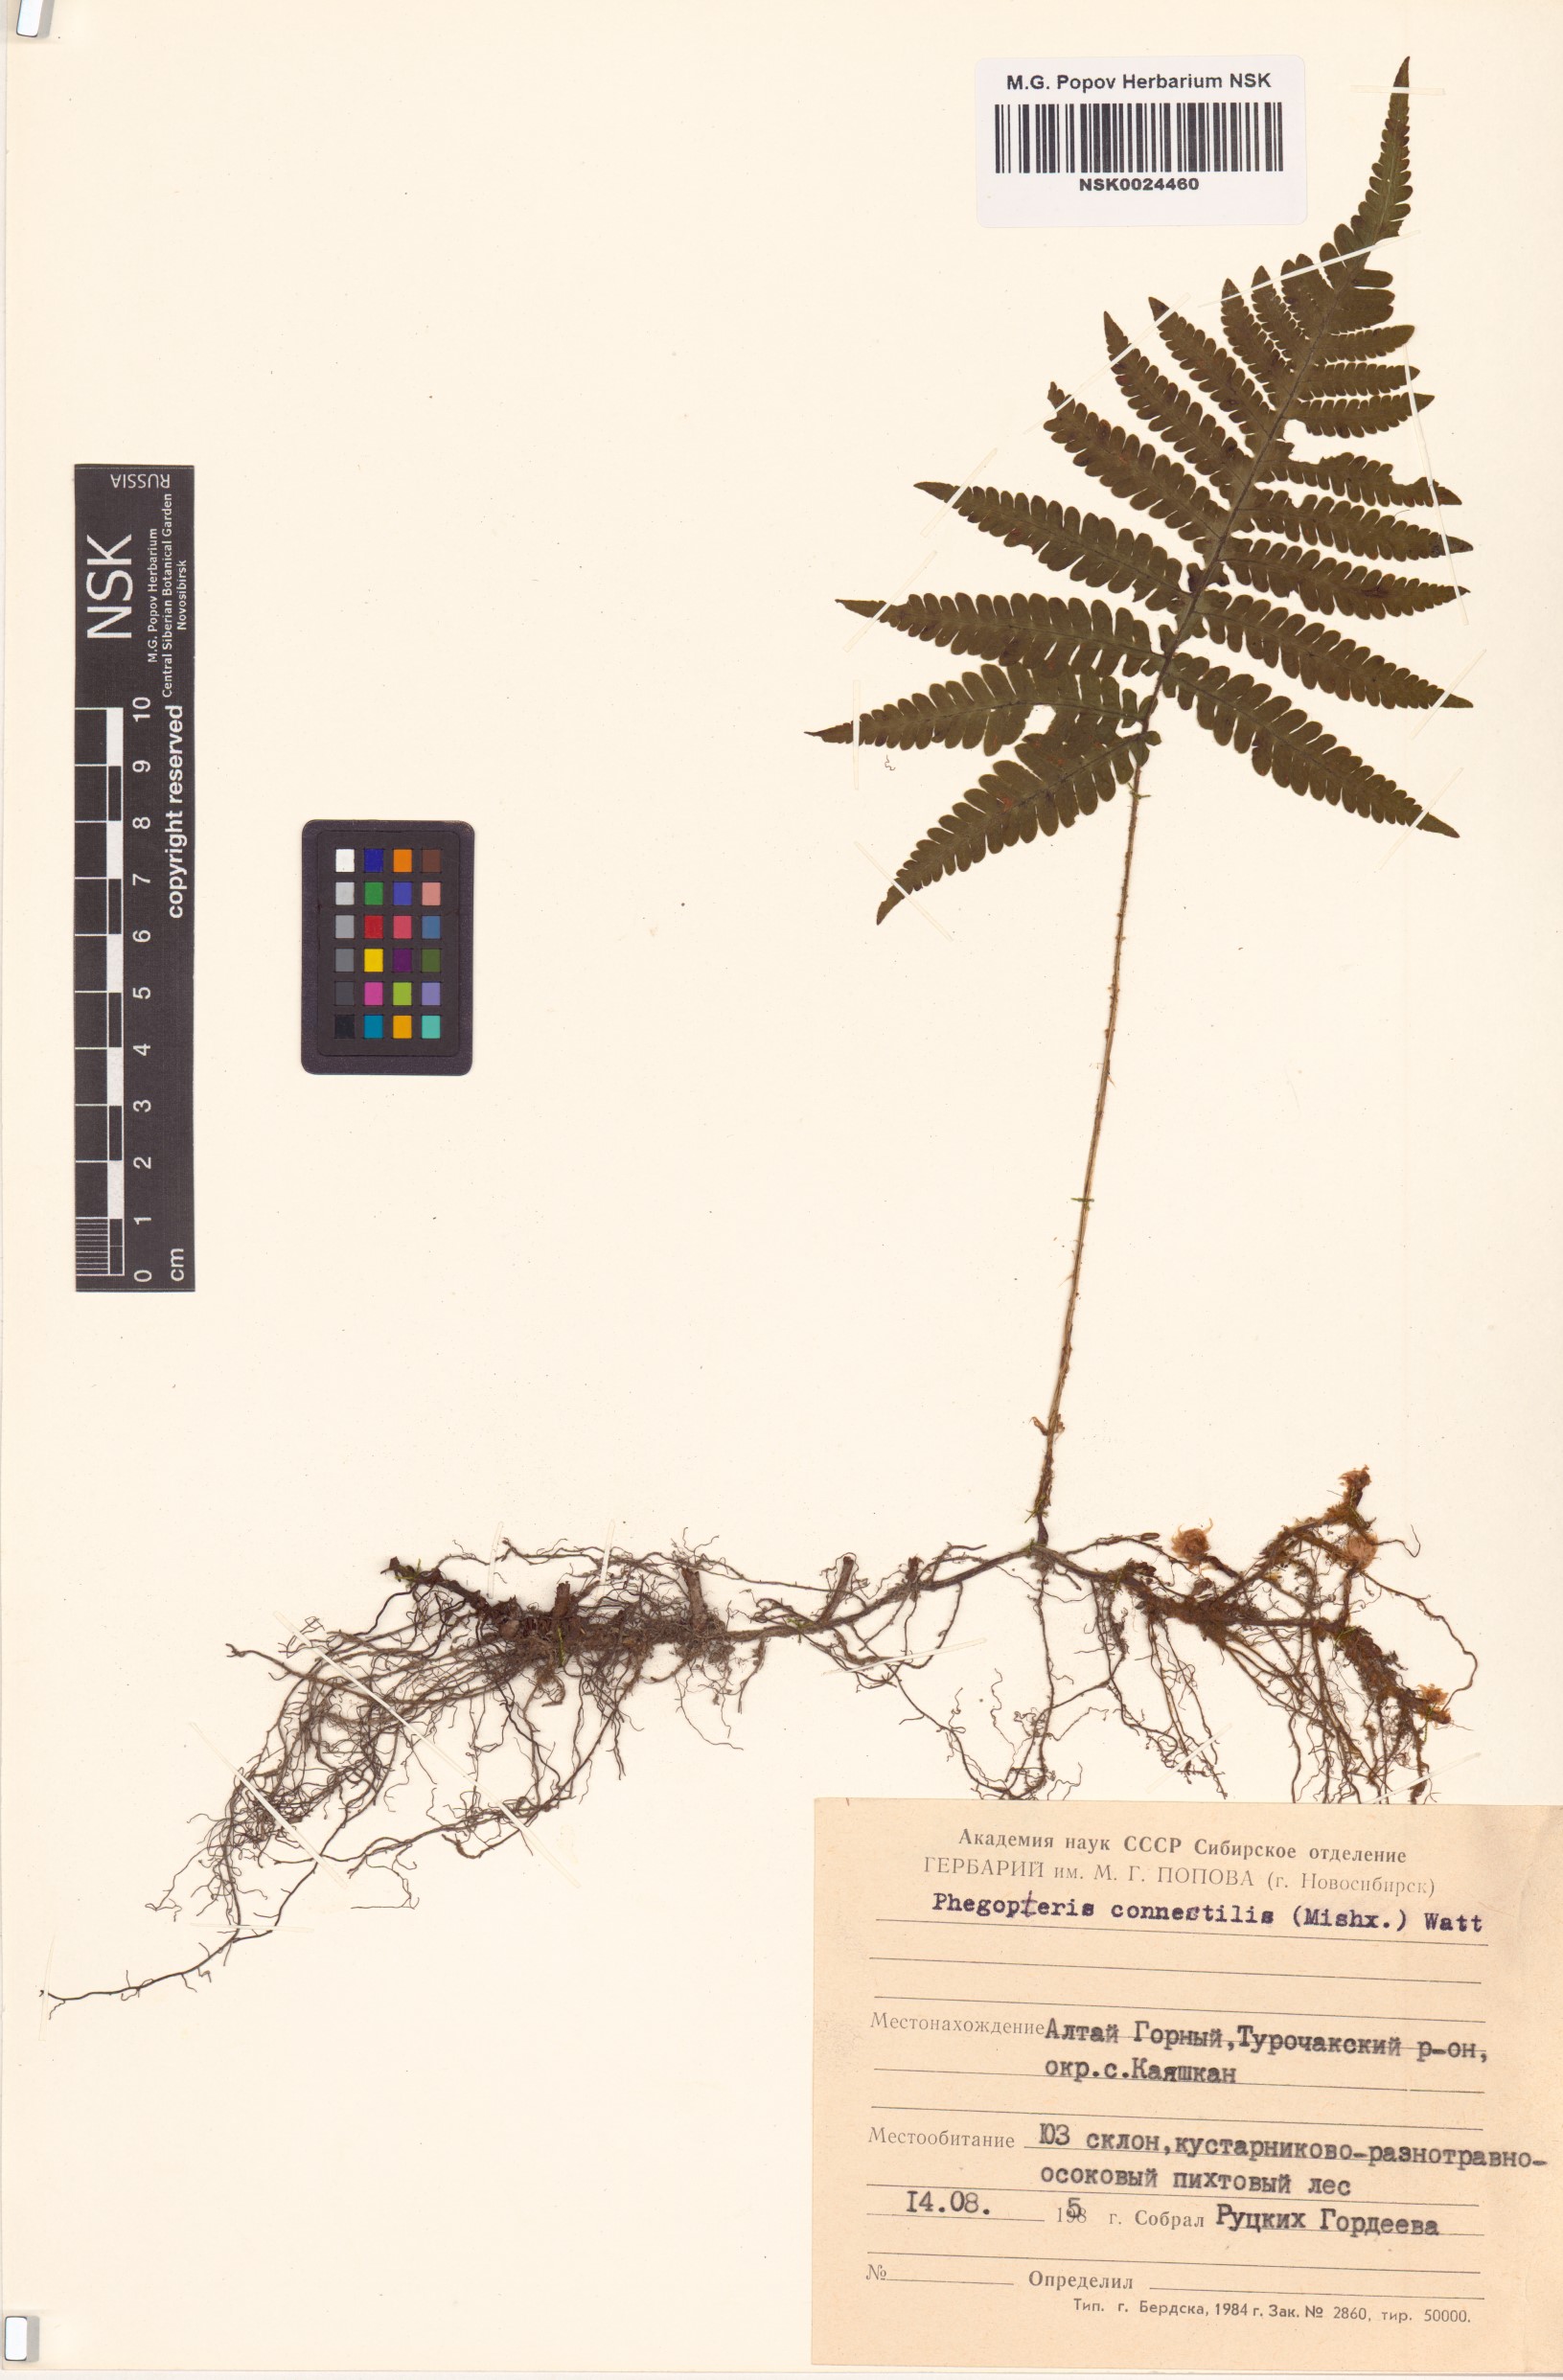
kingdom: Plantae
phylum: Tracheophyta
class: Polypodiopsida
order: Polypodiales
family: Thelypteridaceae
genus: Phegopteris
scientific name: Phegopteris connectilis
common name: Beech fern
